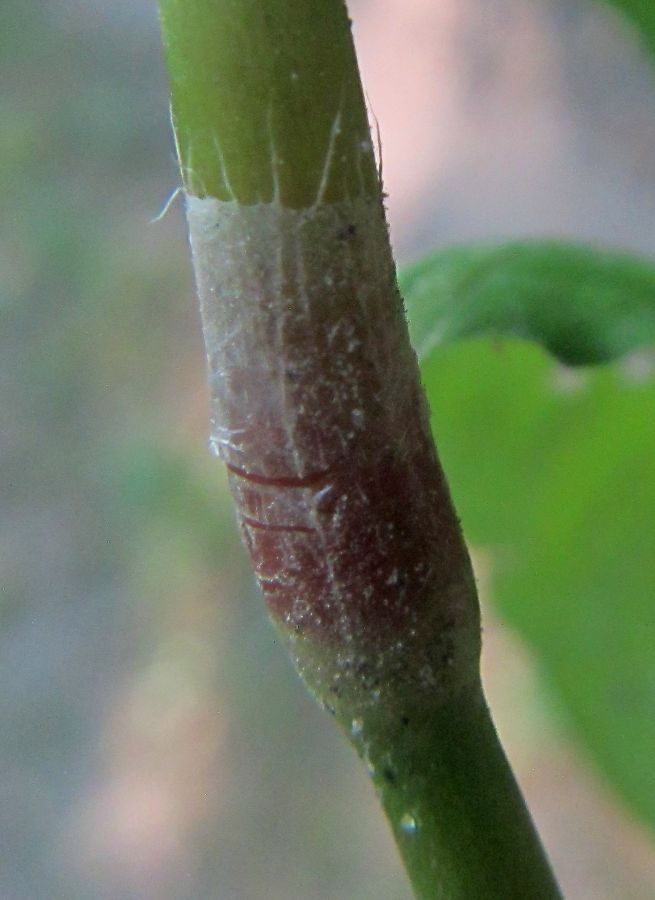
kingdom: Plantae
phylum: Tracheophyta
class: Magnoliopsida
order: Caryophyllales
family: Polygonaceae
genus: Persicaria
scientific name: Persicaria
